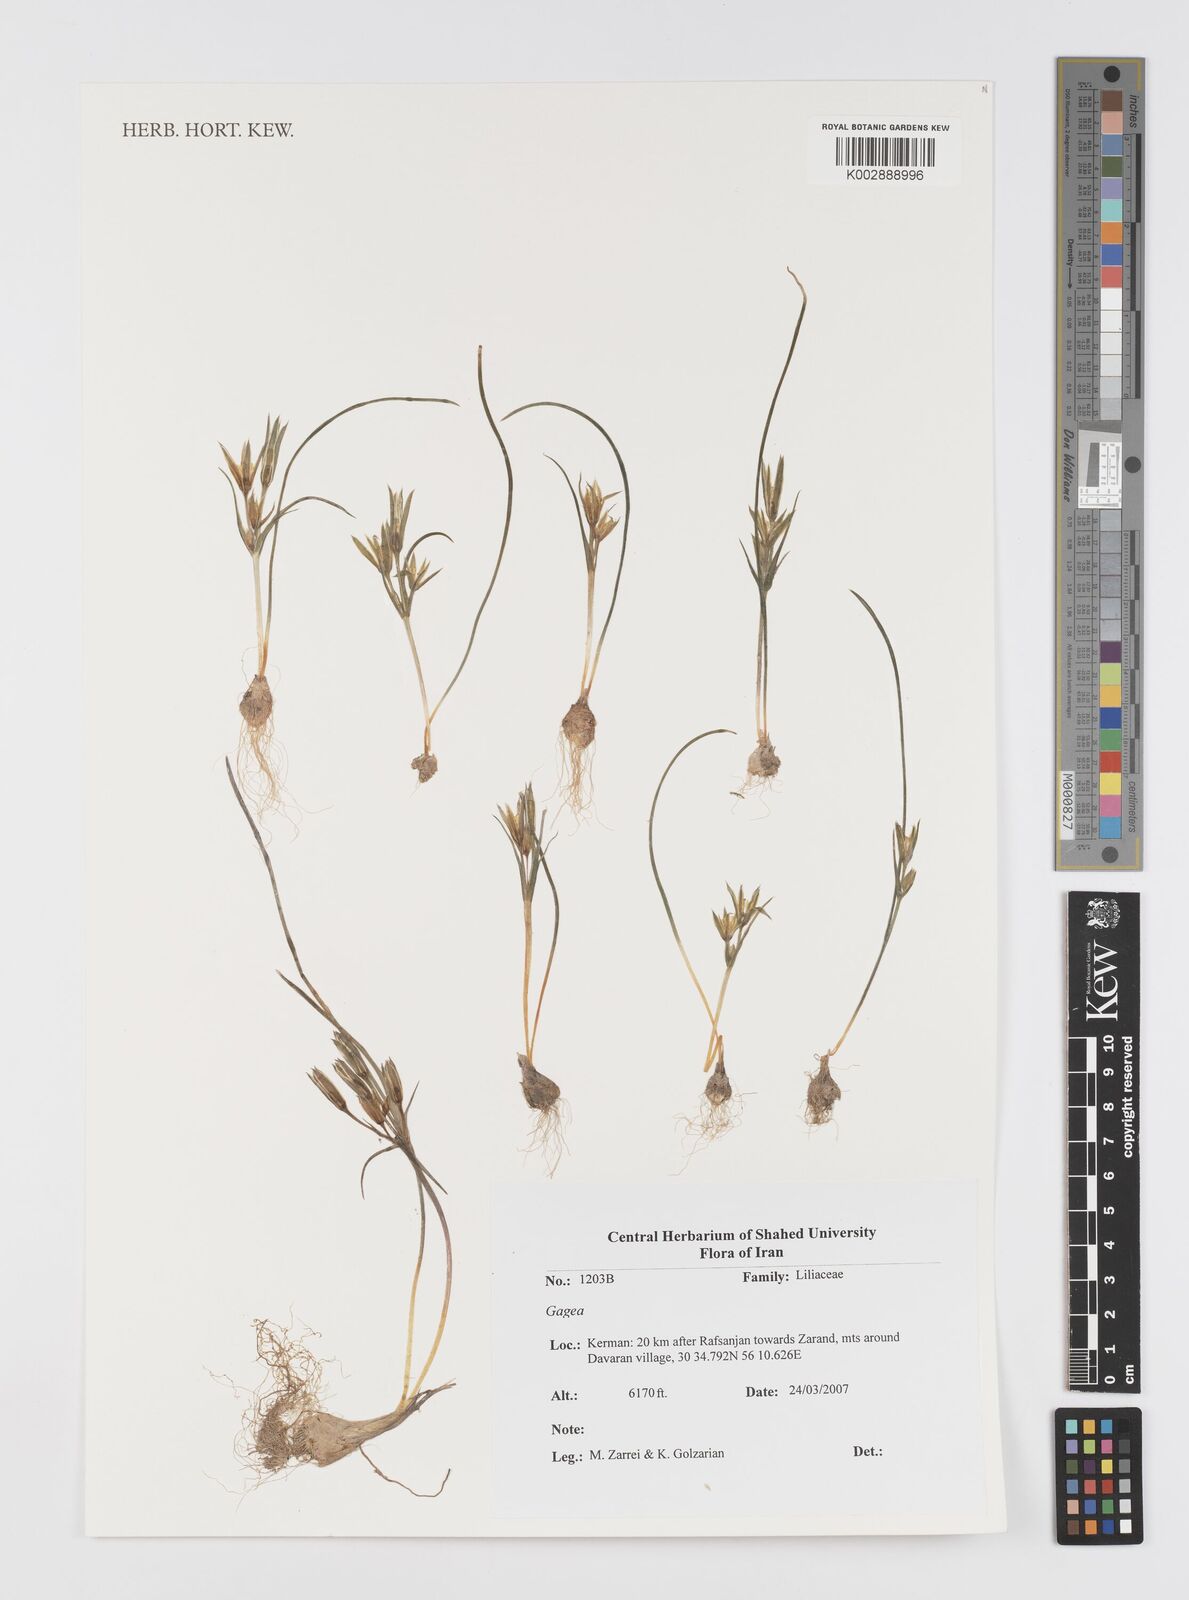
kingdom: Plantae
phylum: Tracheophyta
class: Liliopsida
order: Liliales
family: Liliaceae
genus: Gagea
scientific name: Gagea
